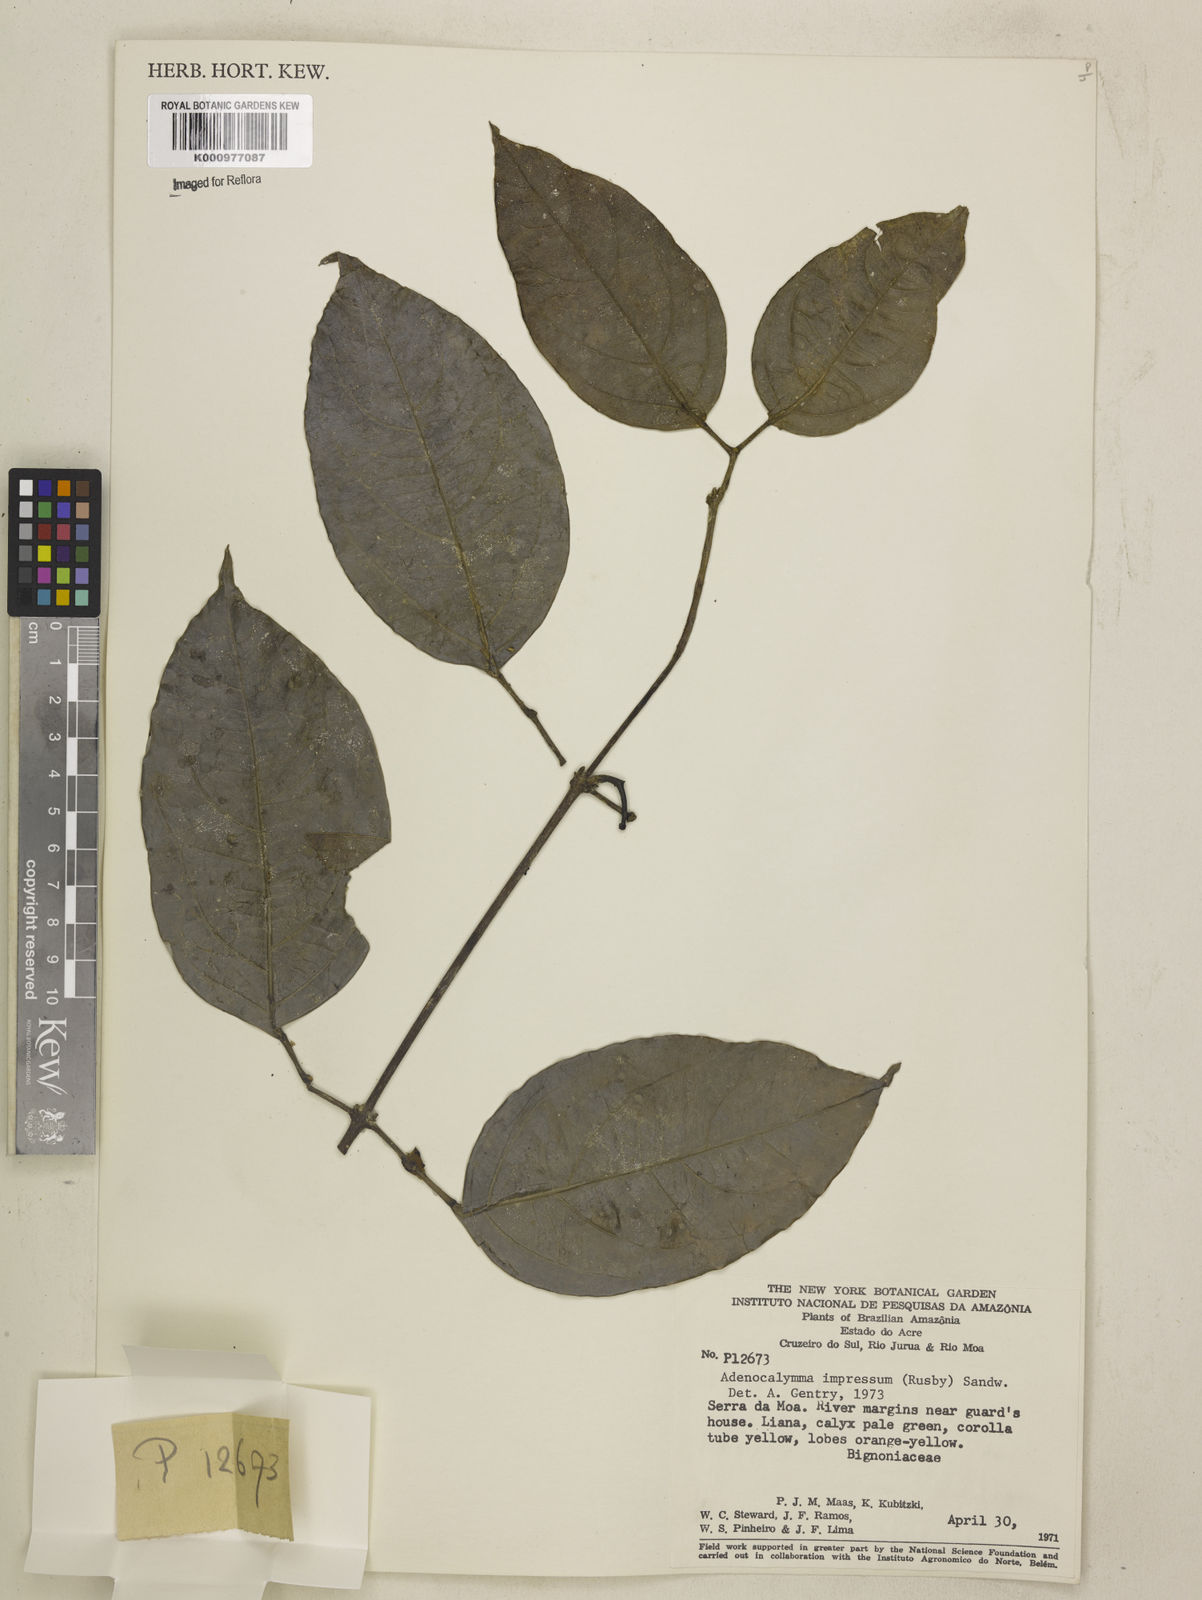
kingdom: Plantae
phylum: Tracheophyta
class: Magnoliopsida
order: Lamiales
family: Bignoniaceae
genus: Adenocalymma
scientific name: Adenocalymma impressum
